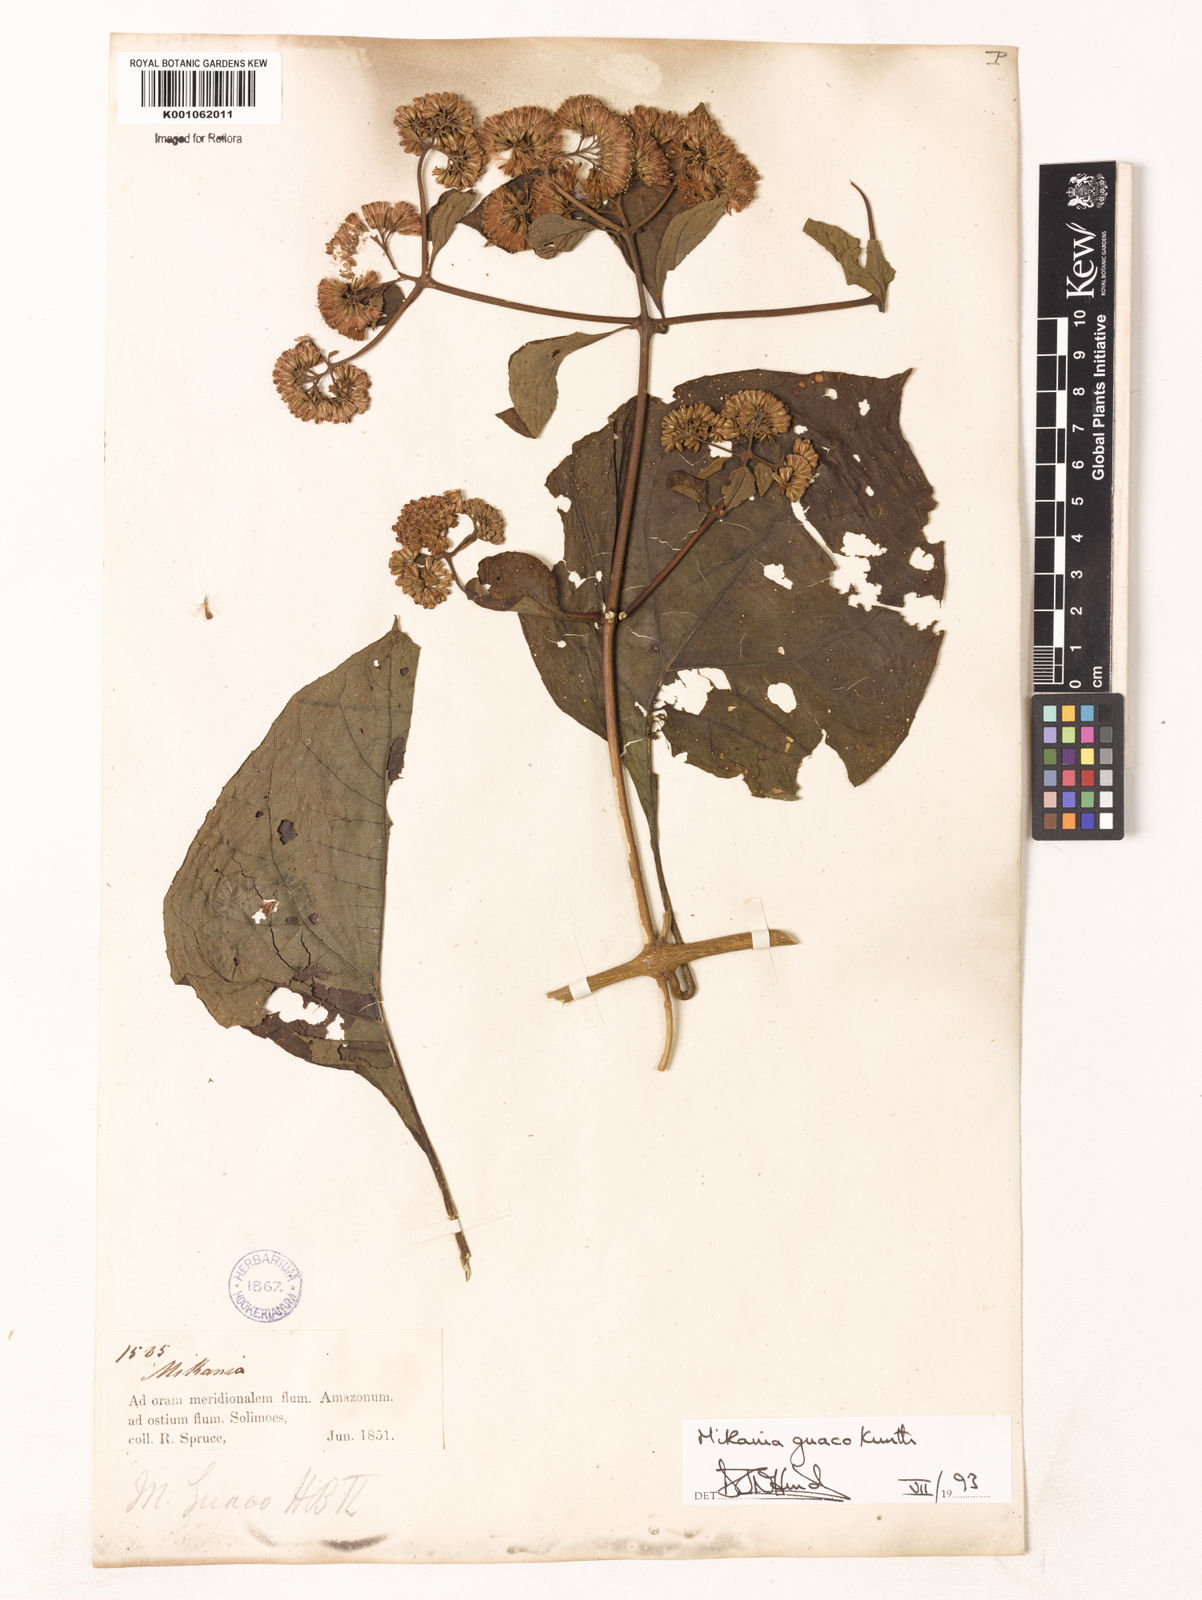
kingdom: Plantae
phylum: Tracheophyta
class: Magnoliopsida
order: Asterales
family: Asteraceae
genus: Mikania
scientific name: Mikania
